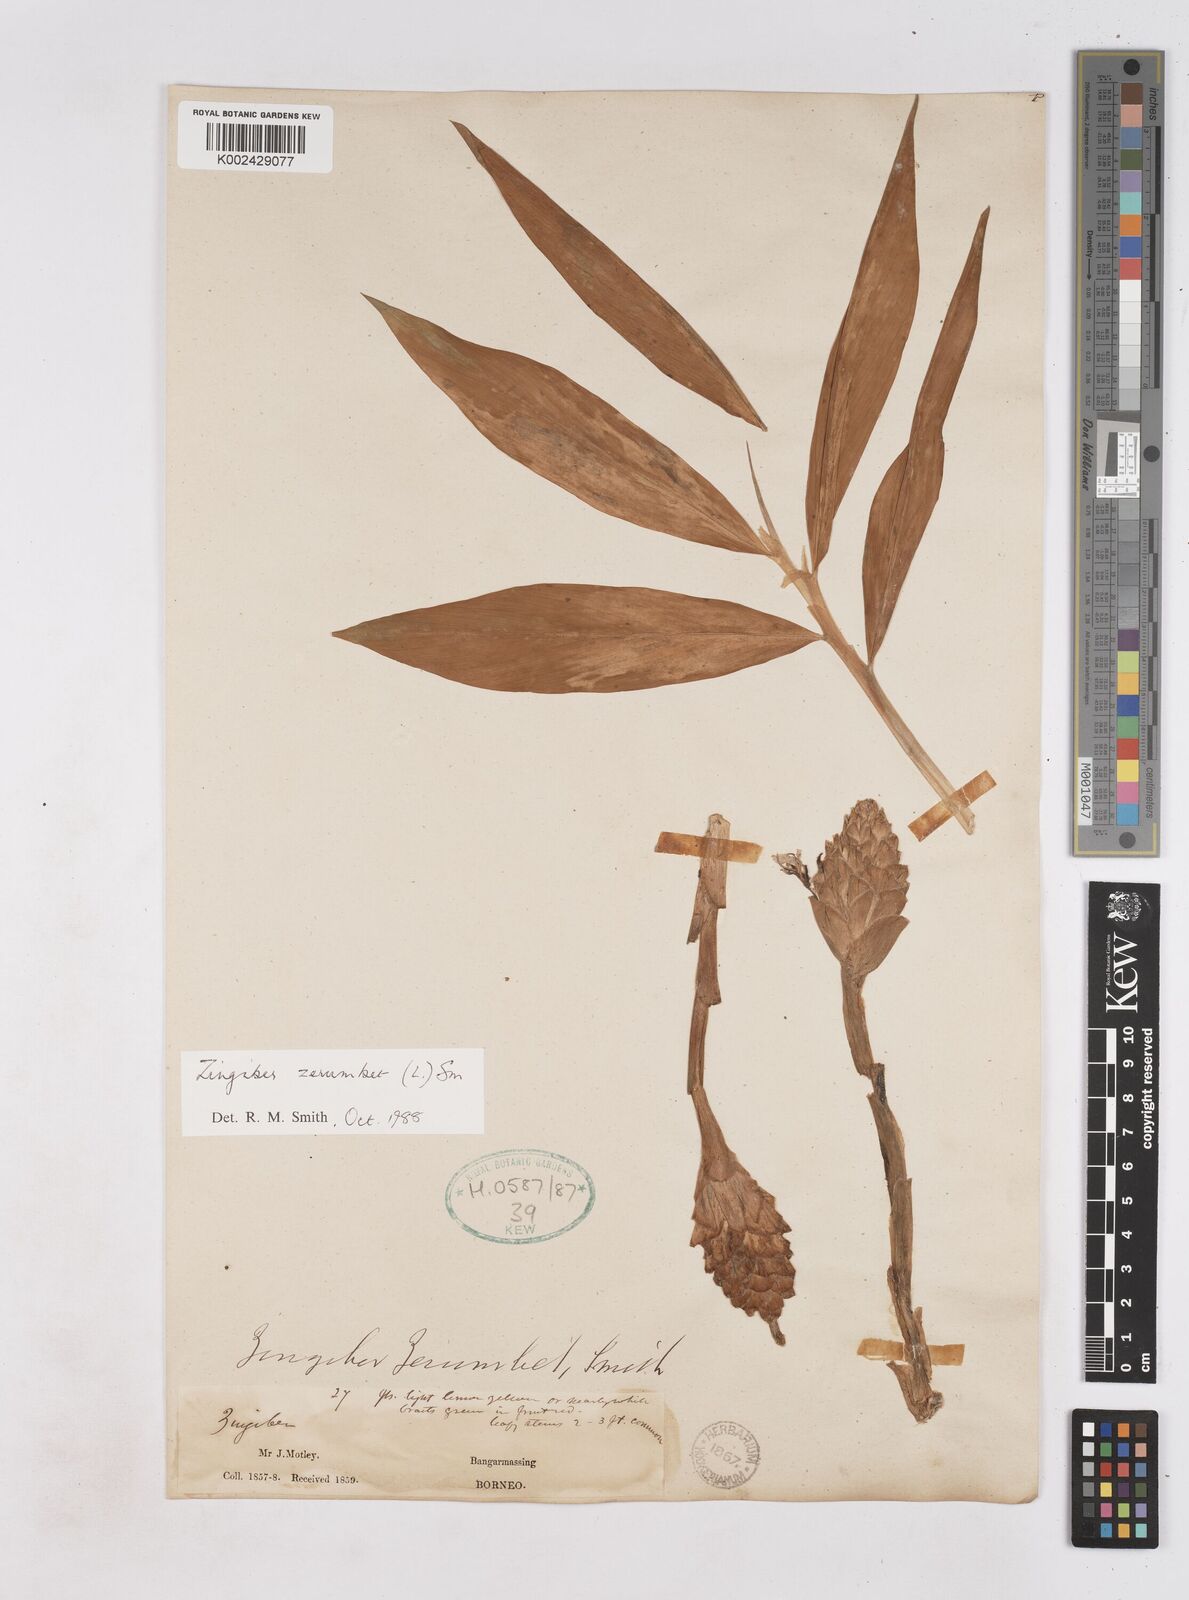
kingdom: Plantae
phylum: Tracheophyta
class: Liliopsida
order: Zingiberales
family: Zingiberaceae
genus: Zingiber
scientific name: Zingiber zerumbet
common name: Bitter ginger
